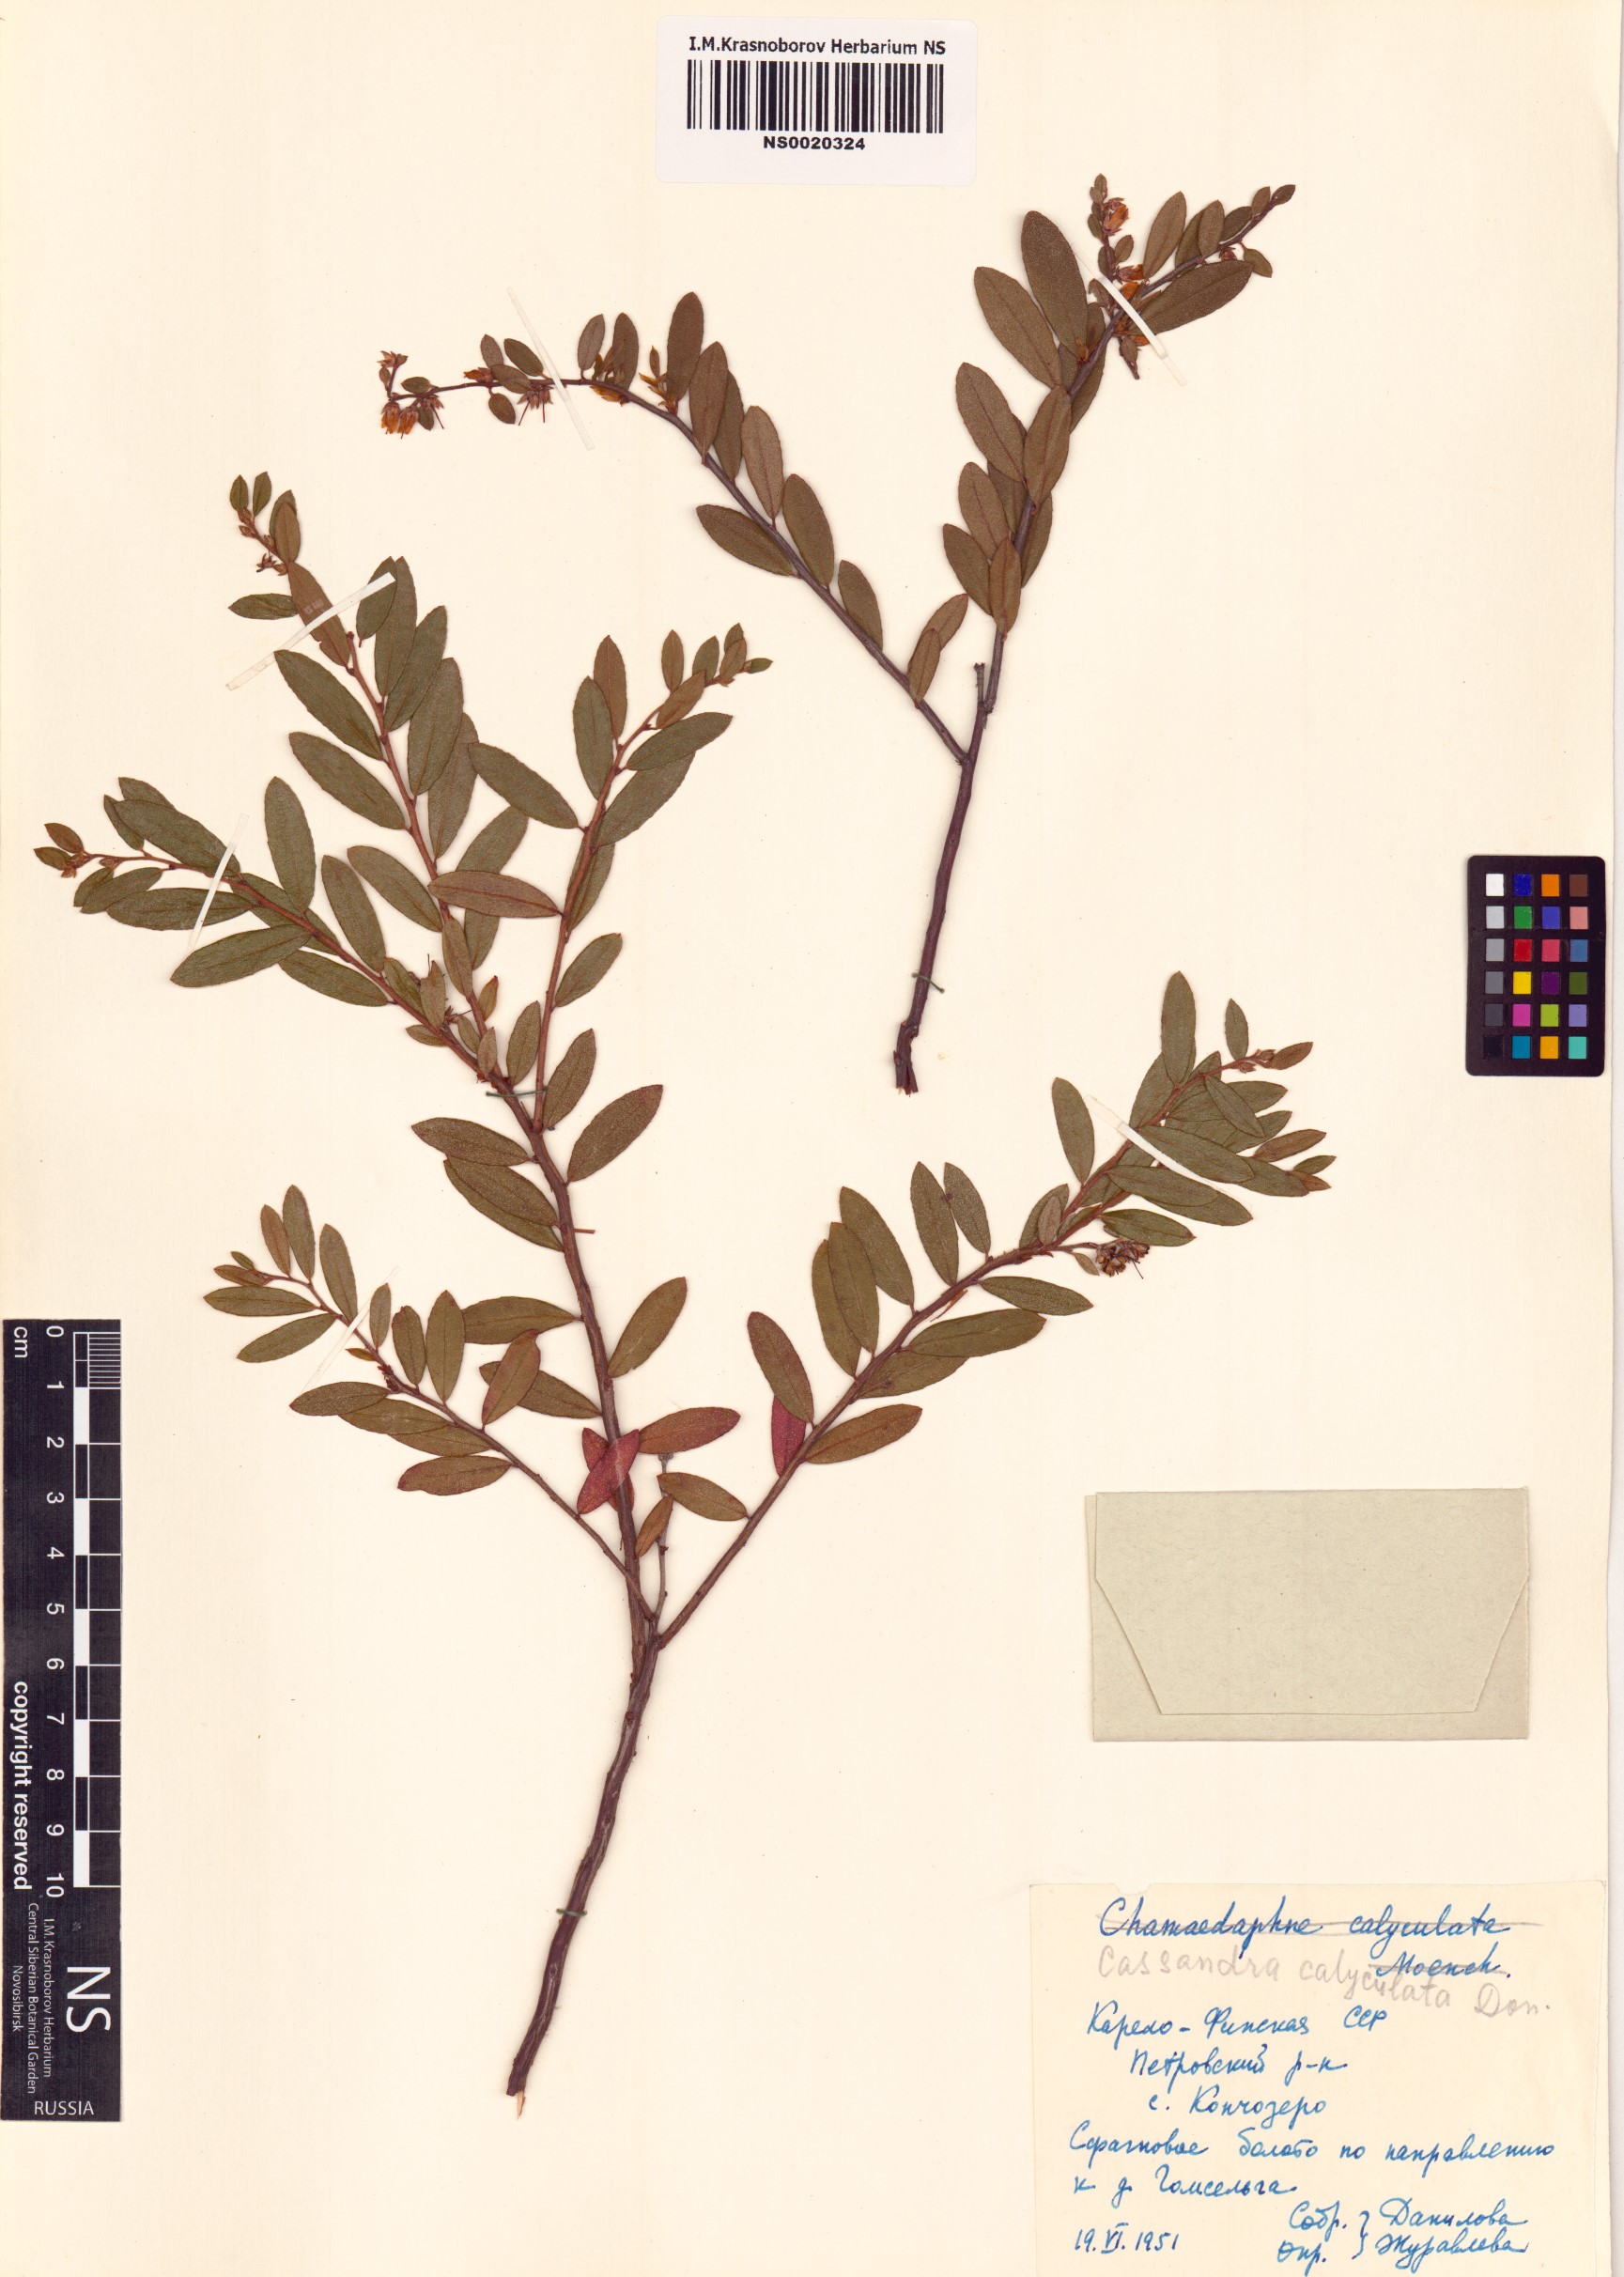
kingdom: Plantae
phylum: Tracheophyta
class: Magnoliopsida
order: Ericales
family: Ericaceae
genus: Chamaedaphne
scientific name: Chamaedaphne calyculata
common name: Leatherleaf
